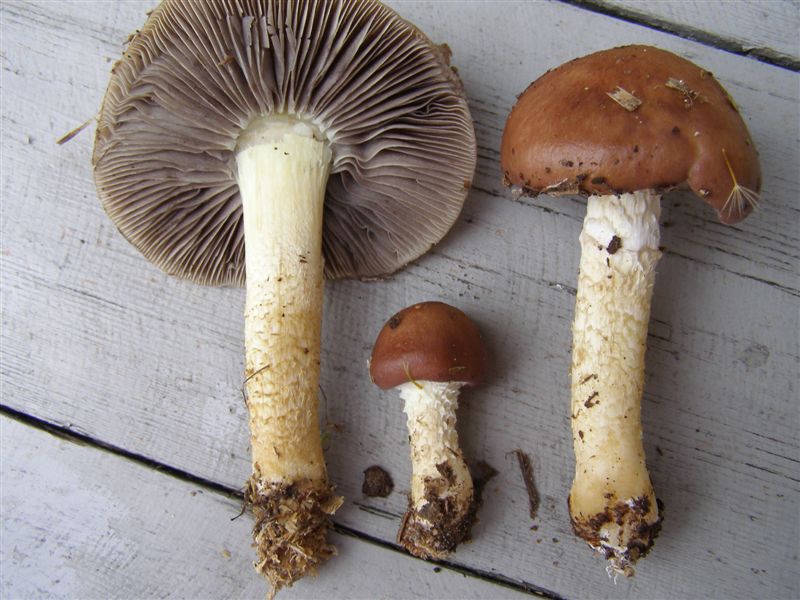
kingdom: Fungi
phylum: Basidiomycota
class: Agaricomycetes
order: Agaricales
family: Strophariaceae
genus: Stropharia
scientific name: Stropharia hornemannii
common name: nordisk bredblad
